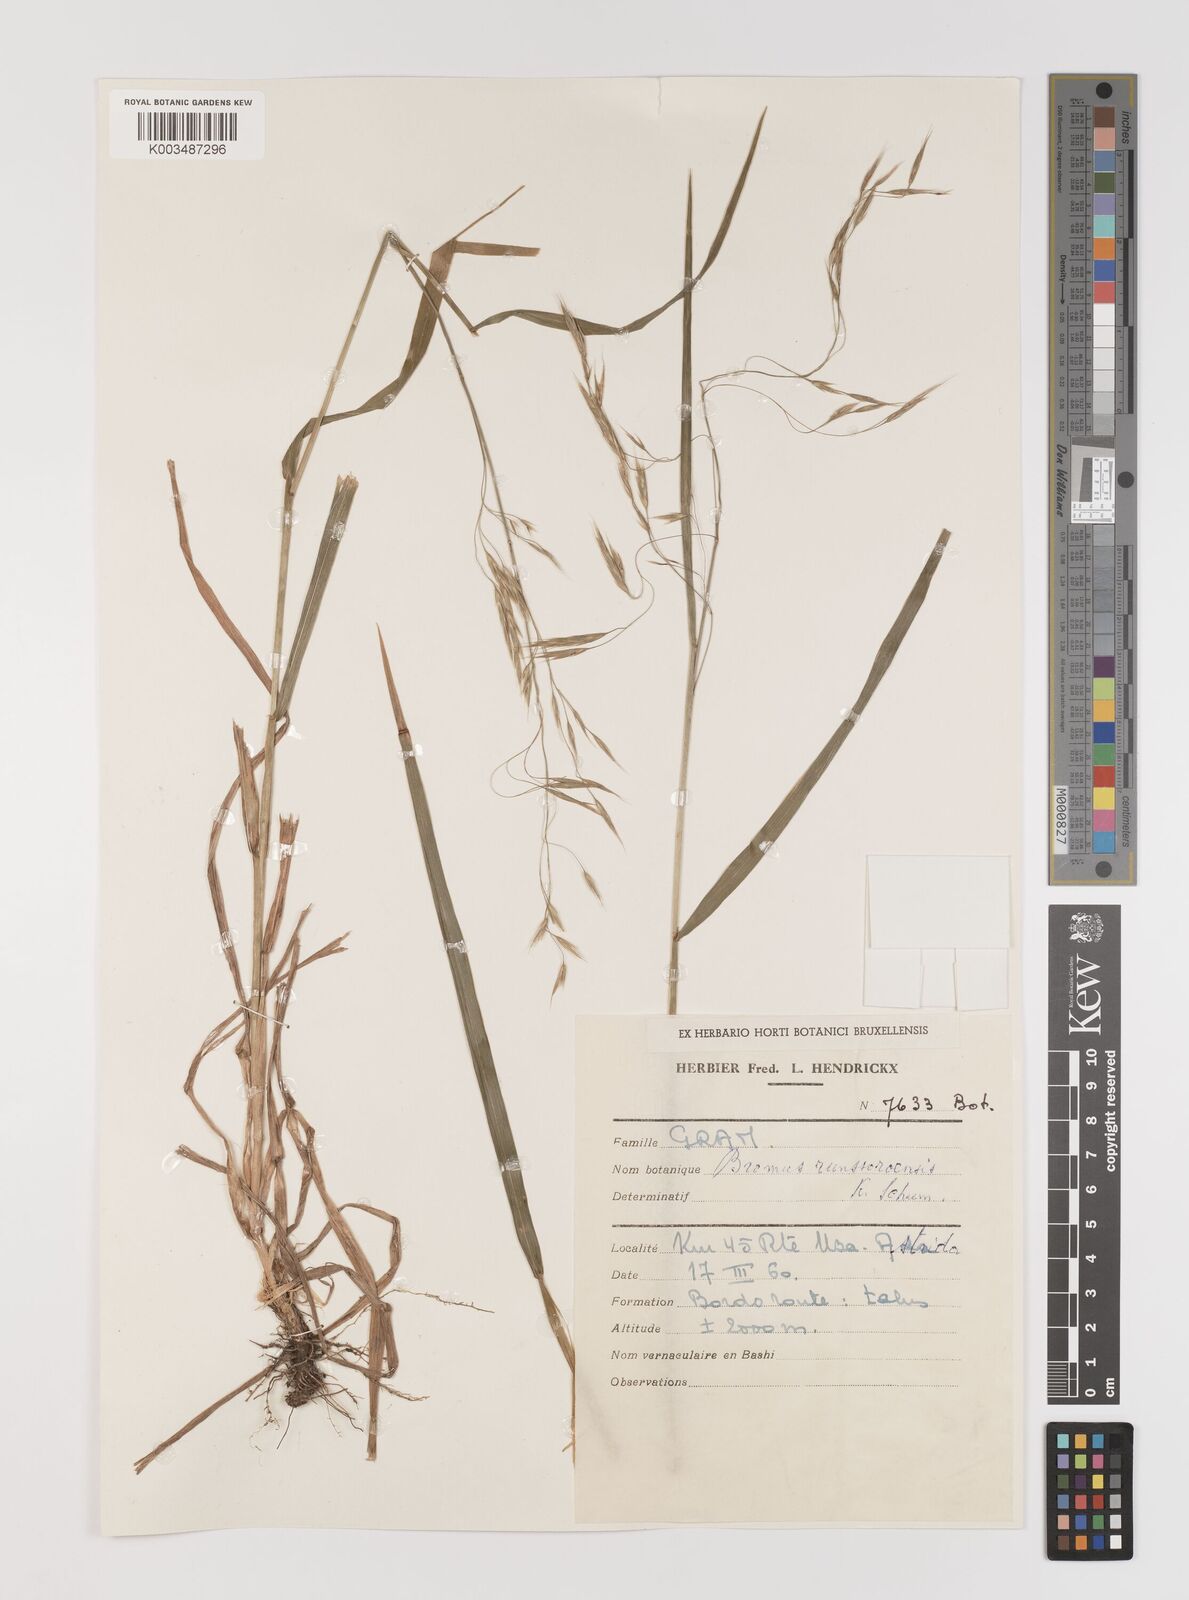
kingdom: Plantae
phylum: Tracheophyta
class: Liliopsida
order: Poales
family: Poaceae
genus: Bromus
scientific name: Bromus leptoclados
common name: Mountain bromegrass
